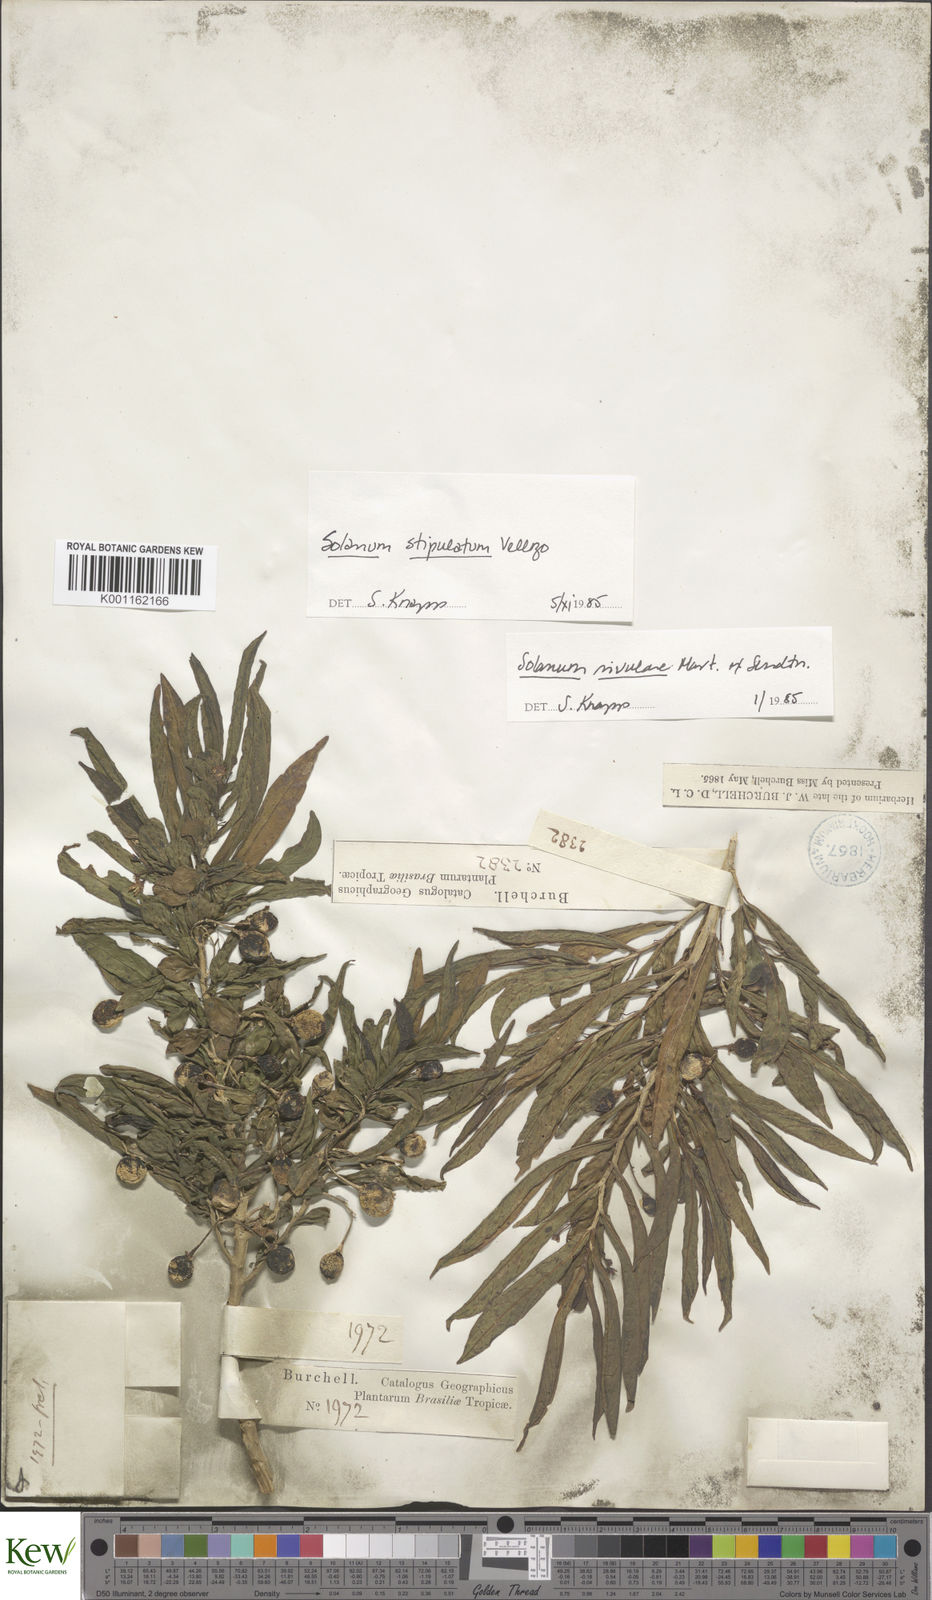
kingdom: Plantae
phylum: Tracheophyta
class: Magnoliopsida
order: Solanales
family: Solanaceae
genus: Solanum
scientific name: Solanum stipulatum
